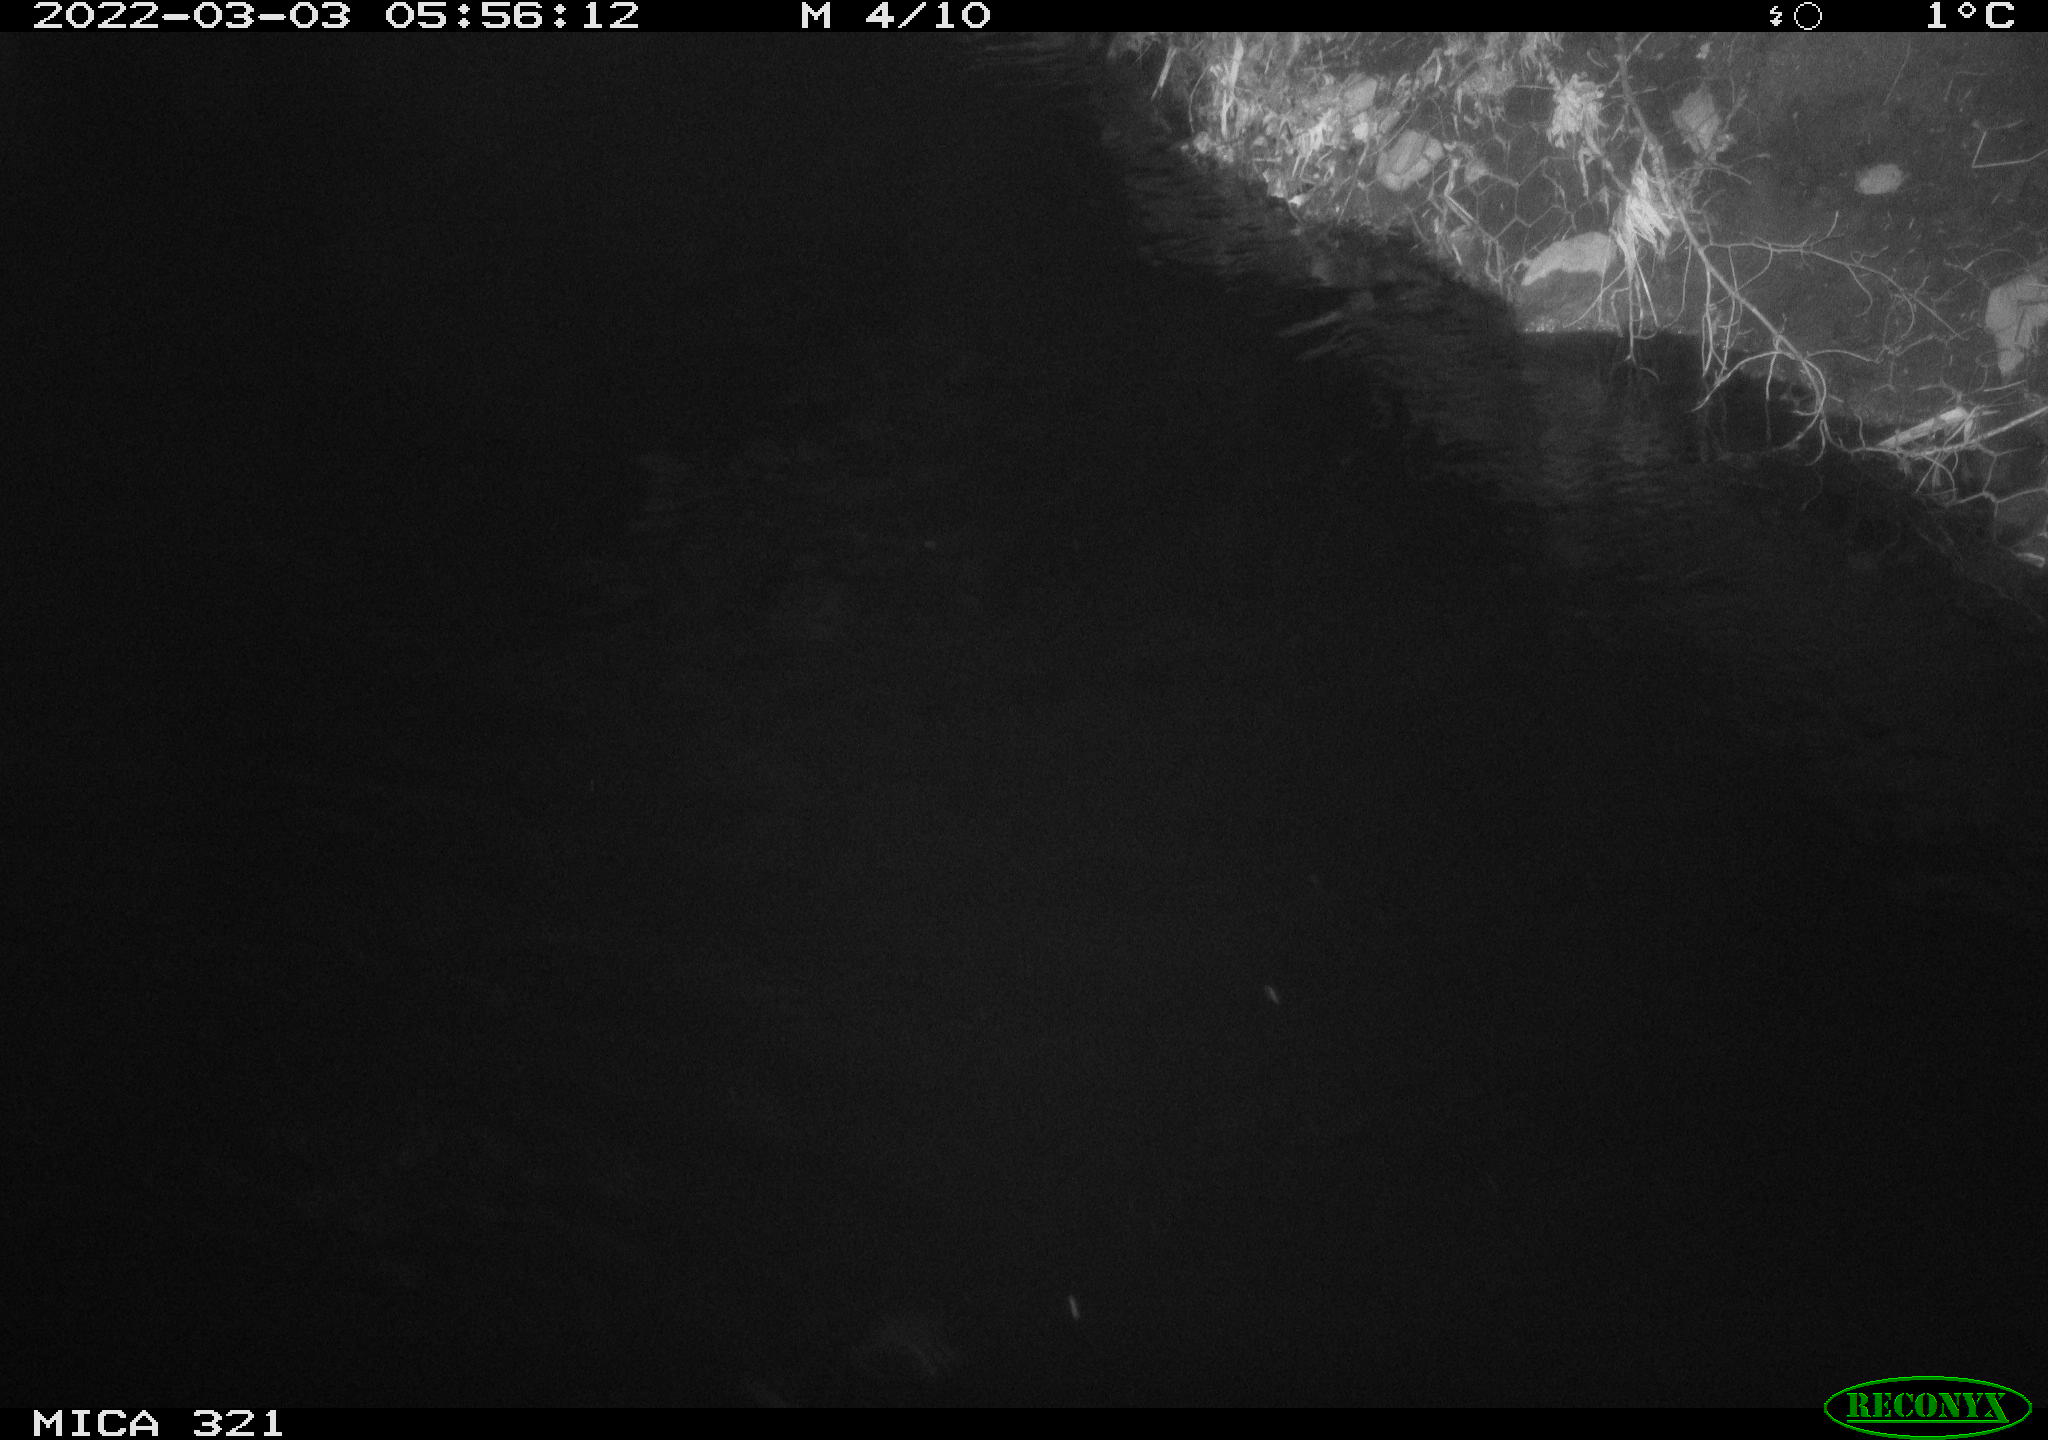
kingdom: Animalia
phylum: Chordata
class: Aves
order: Anseriformes
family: Anatidae
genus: Anas
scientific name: Anas platyrhynchos
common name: Mallard
